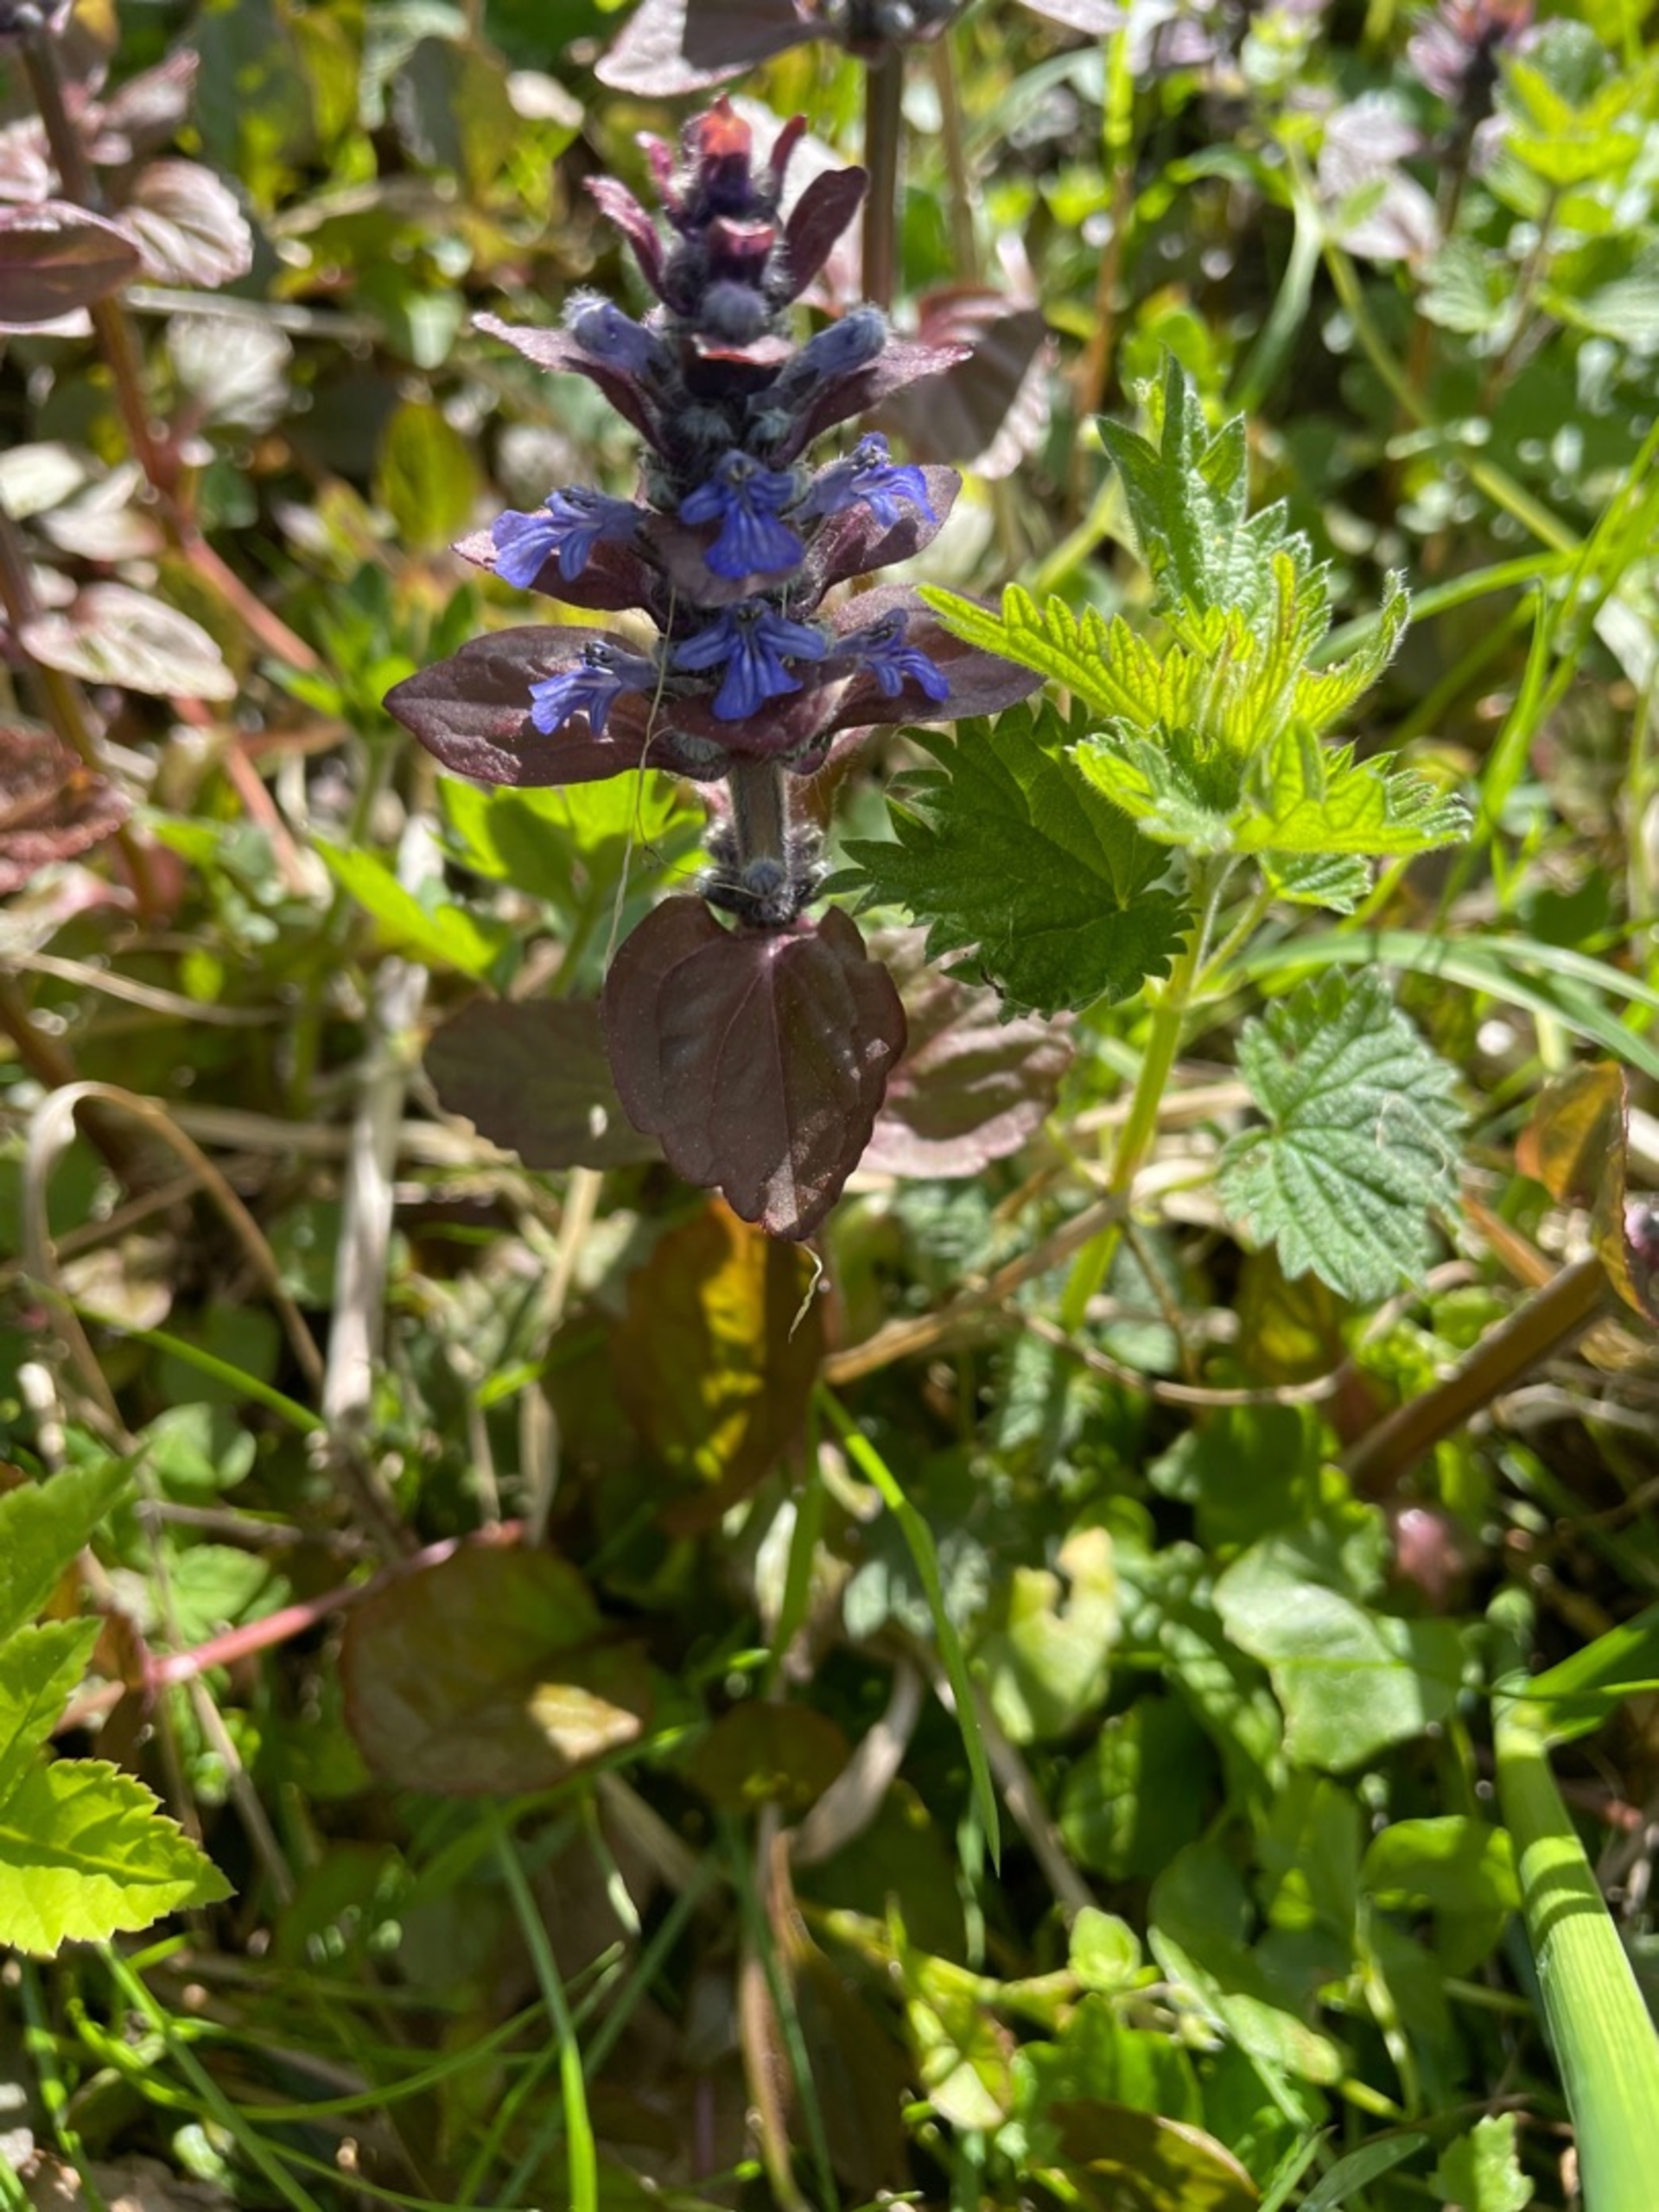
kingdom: Plantae
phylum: Tracheophyta
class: Magnoliopsida
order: Lamiales
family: Lamiaceae
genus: Ajuga
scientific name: Ajuga reptans
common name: Krybende læbeløs
